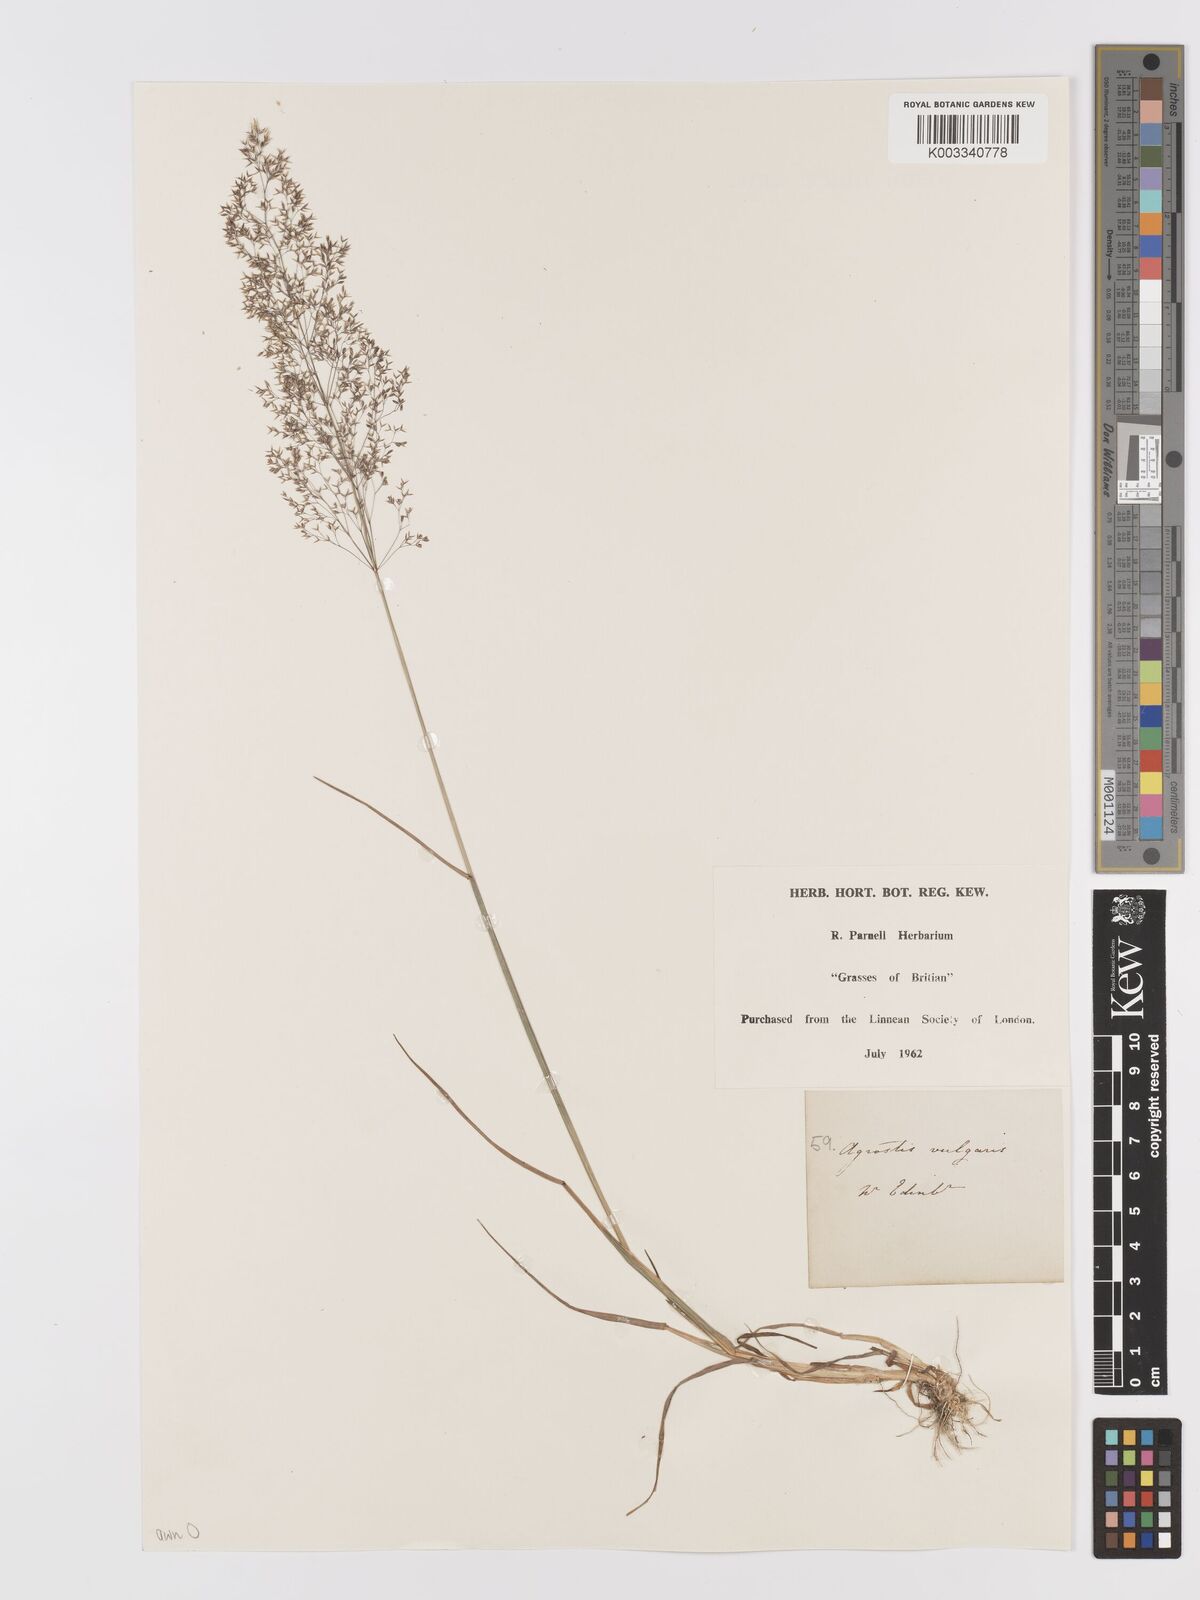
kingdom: Plantae
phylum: Tracheophyta
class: Liliopsida
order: Poales
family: Poaceae
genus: Agrostis
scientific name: Agrostis capillaris
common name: Colonial bentgrass
